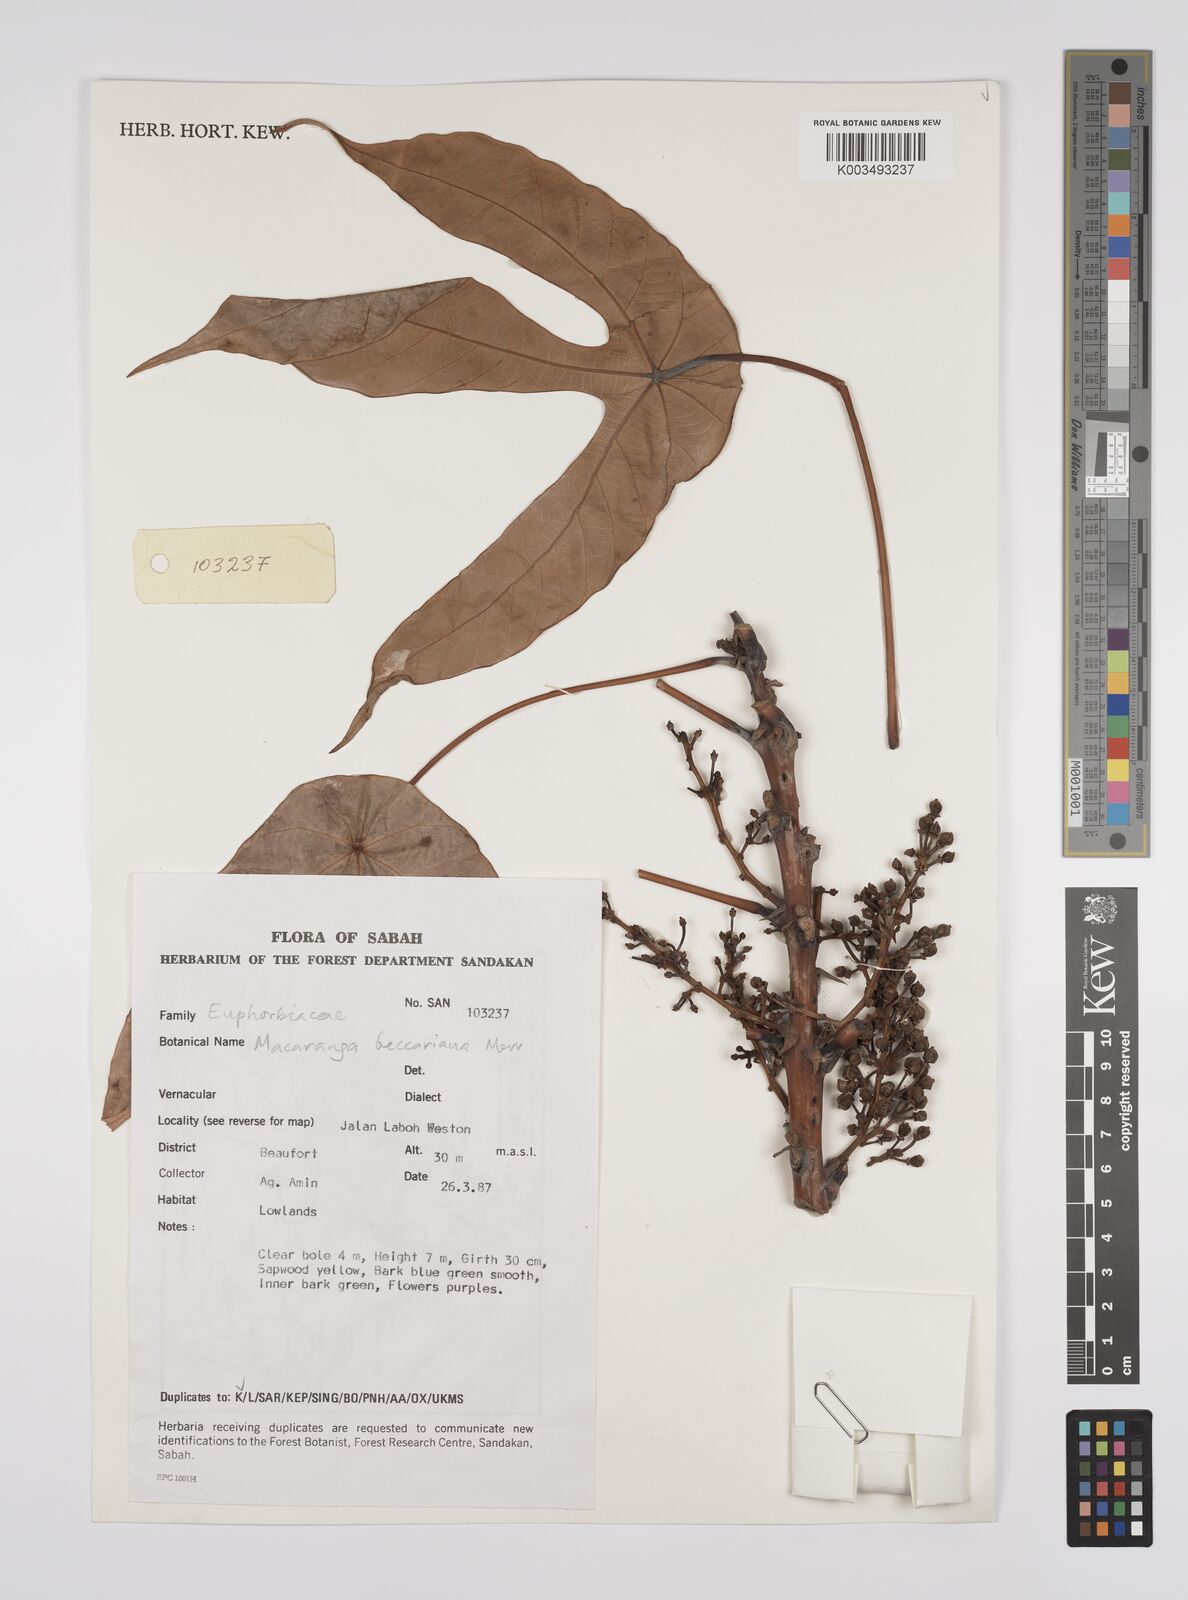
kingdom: Plantae
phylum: Tracheophyta
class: Magnoliopsida
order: Malpighiales
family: Euphorbiaceae
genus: Macaranga
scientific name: Macaranga beccariana
